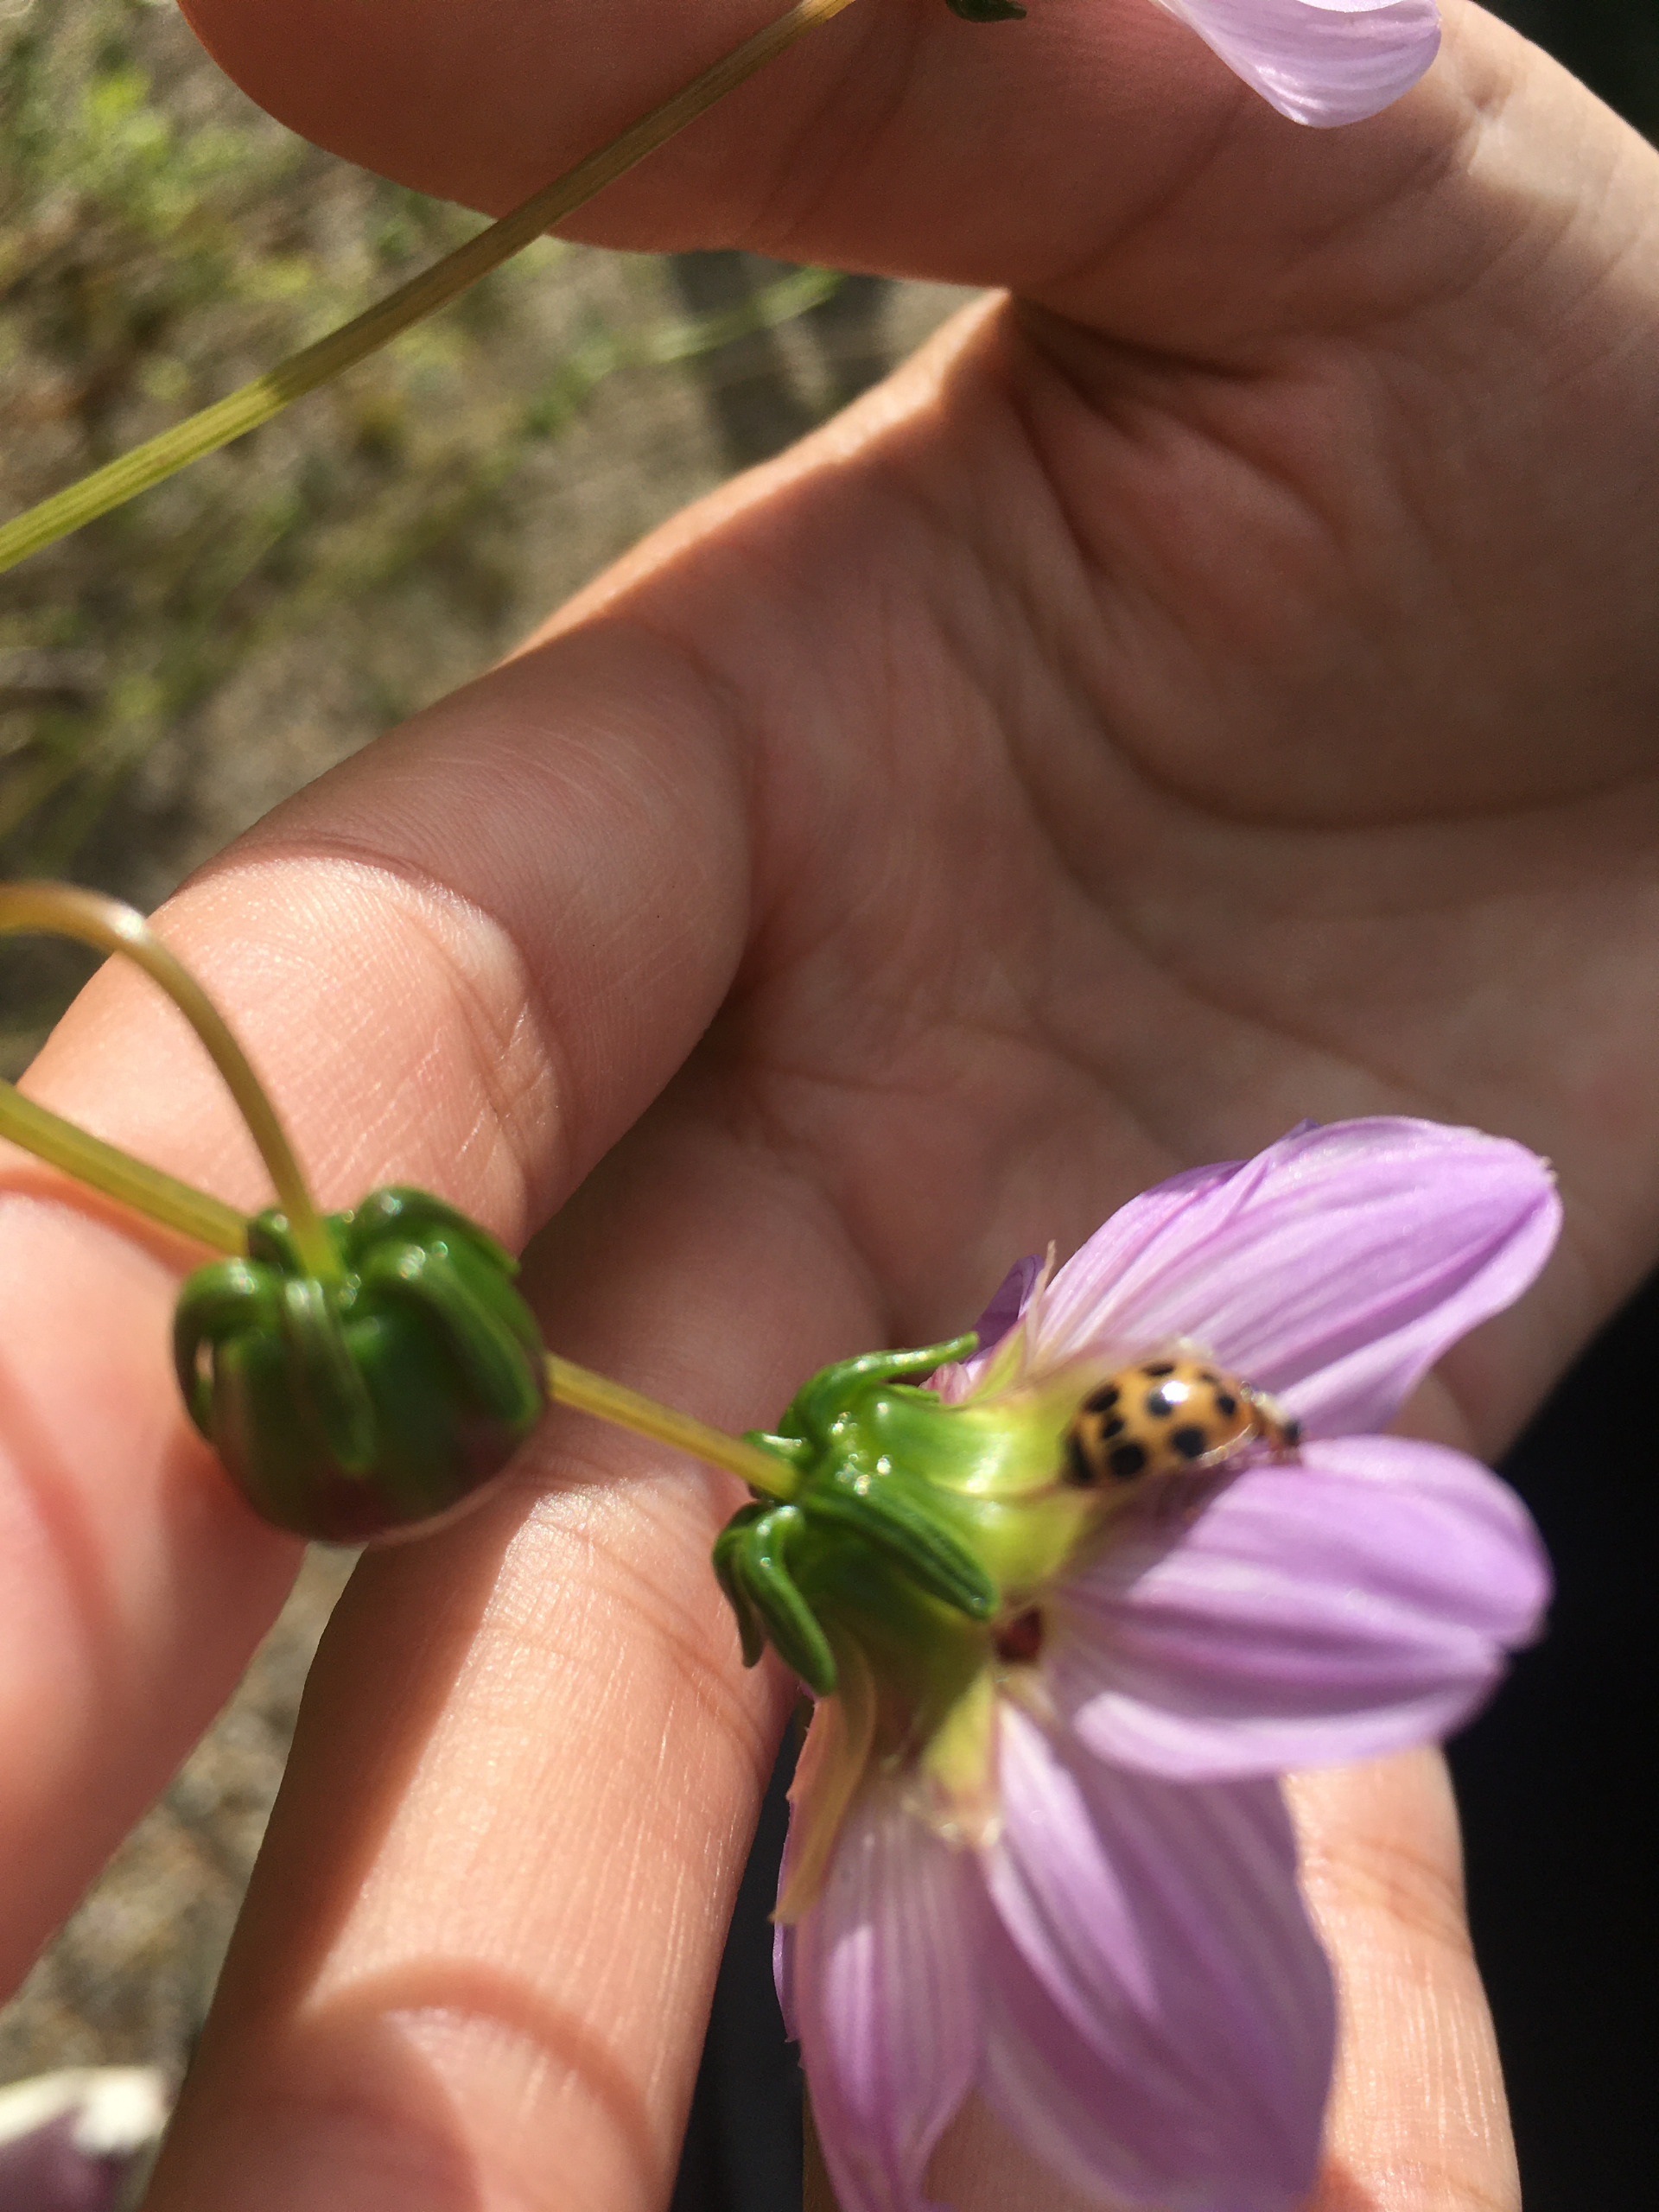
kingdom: Animalia
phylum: Arthropoda
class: Insecta
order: Coleoptera
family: Coccinellidae
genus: Harmonia
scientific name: Harmonia axyridis
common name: Harlekinmariehøne
